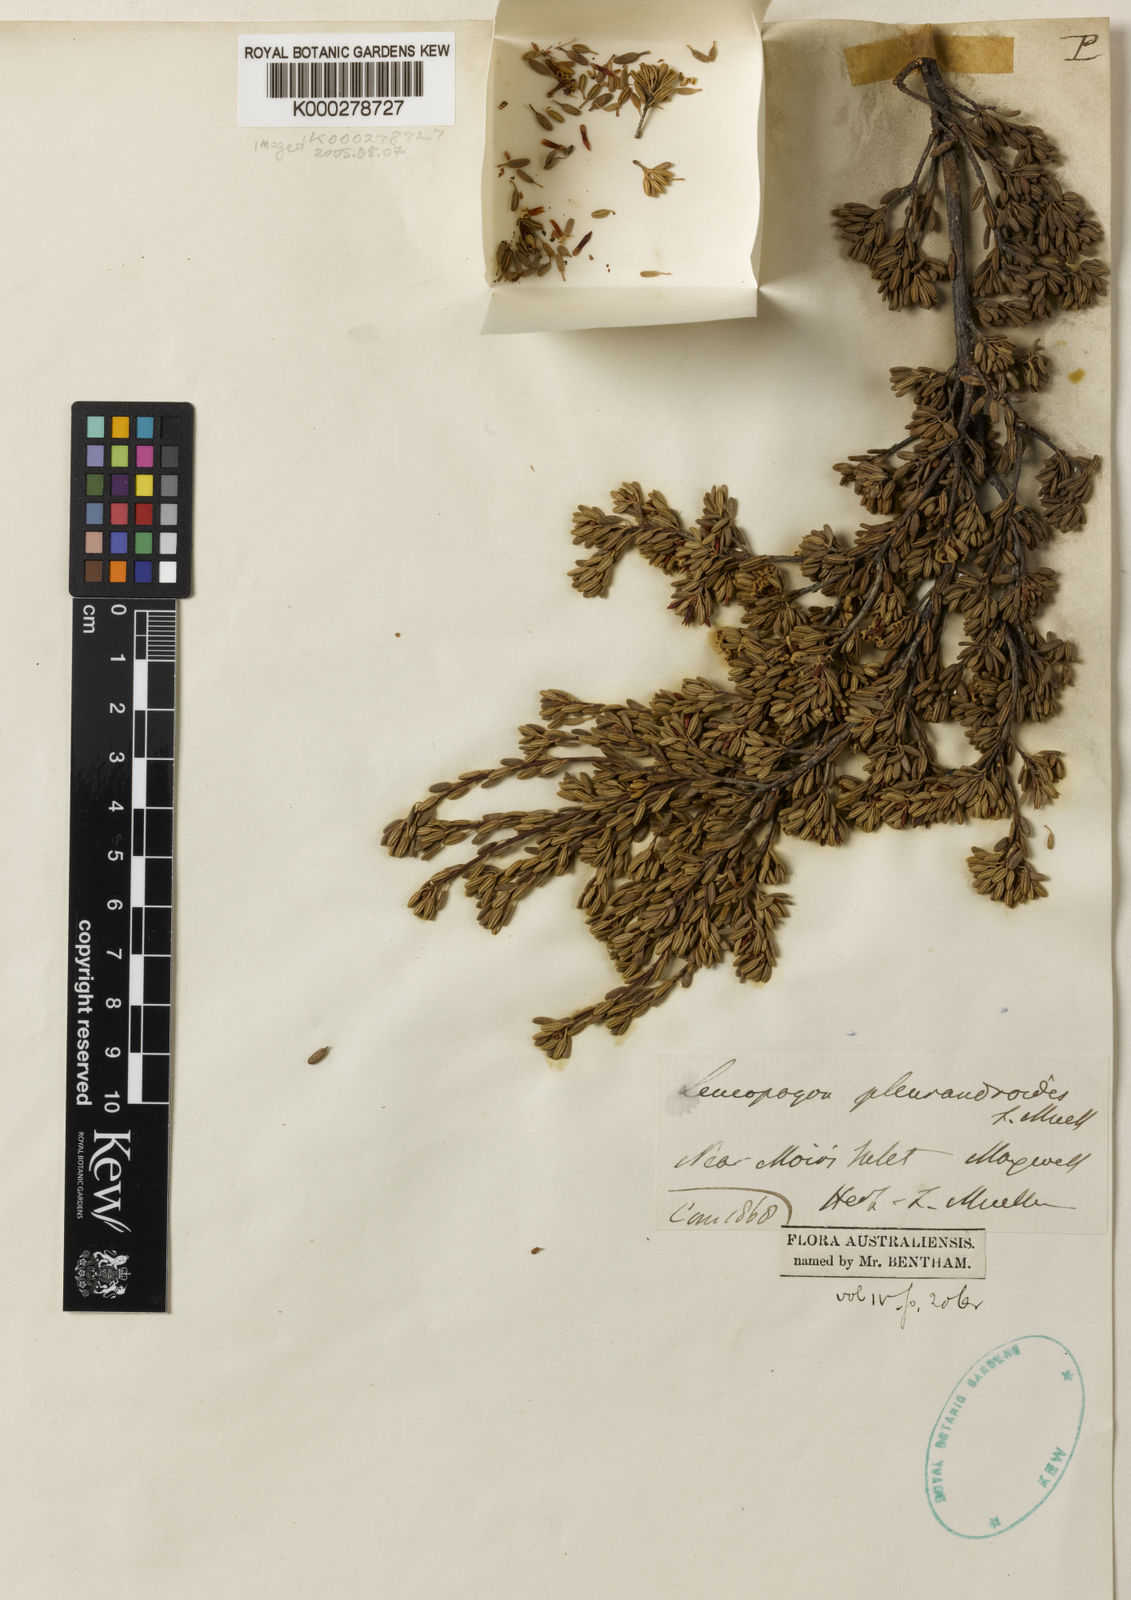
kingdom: Plantae
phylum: Tracheophyta
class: Magnoliopsida
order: Ericales
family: Ericaceae
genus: Lissanthe
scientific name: Lissanthe pleurandroides
